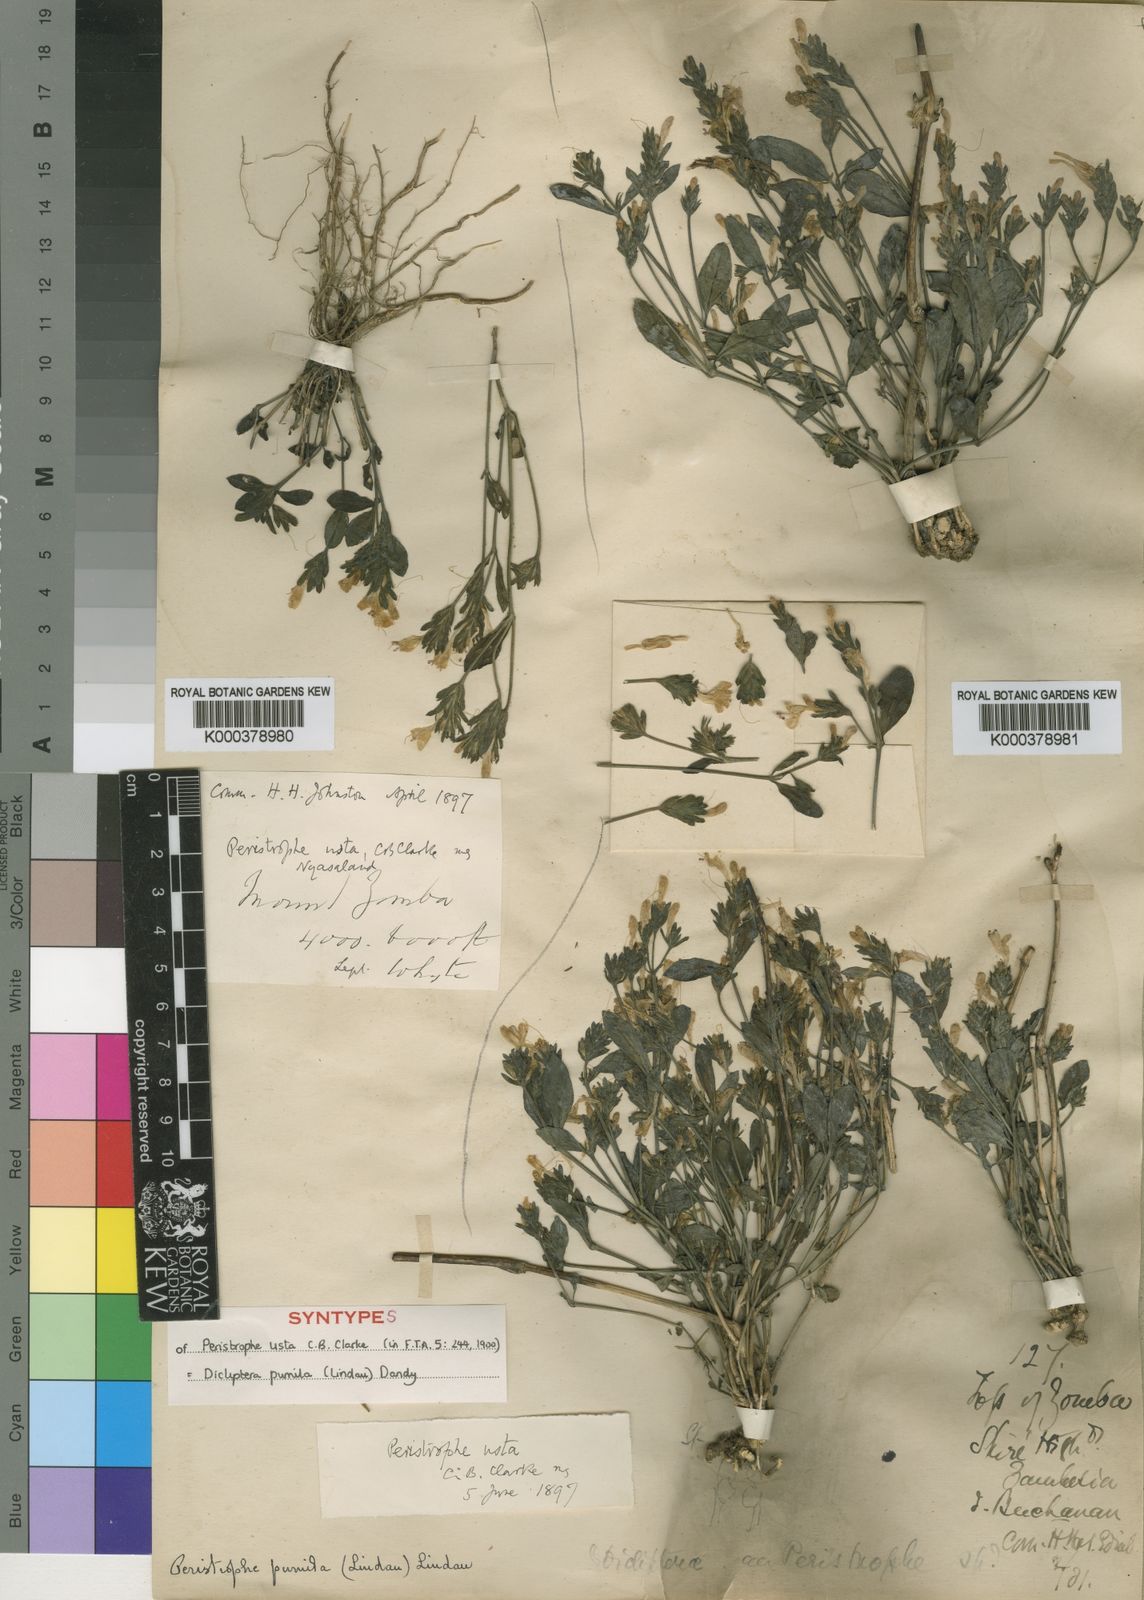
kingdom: Plantae
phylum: Tracheophyta
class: Magnoliopsida
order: Lamiales
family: Acanthaceae
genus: Dicliptera
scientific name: Dicliptera
